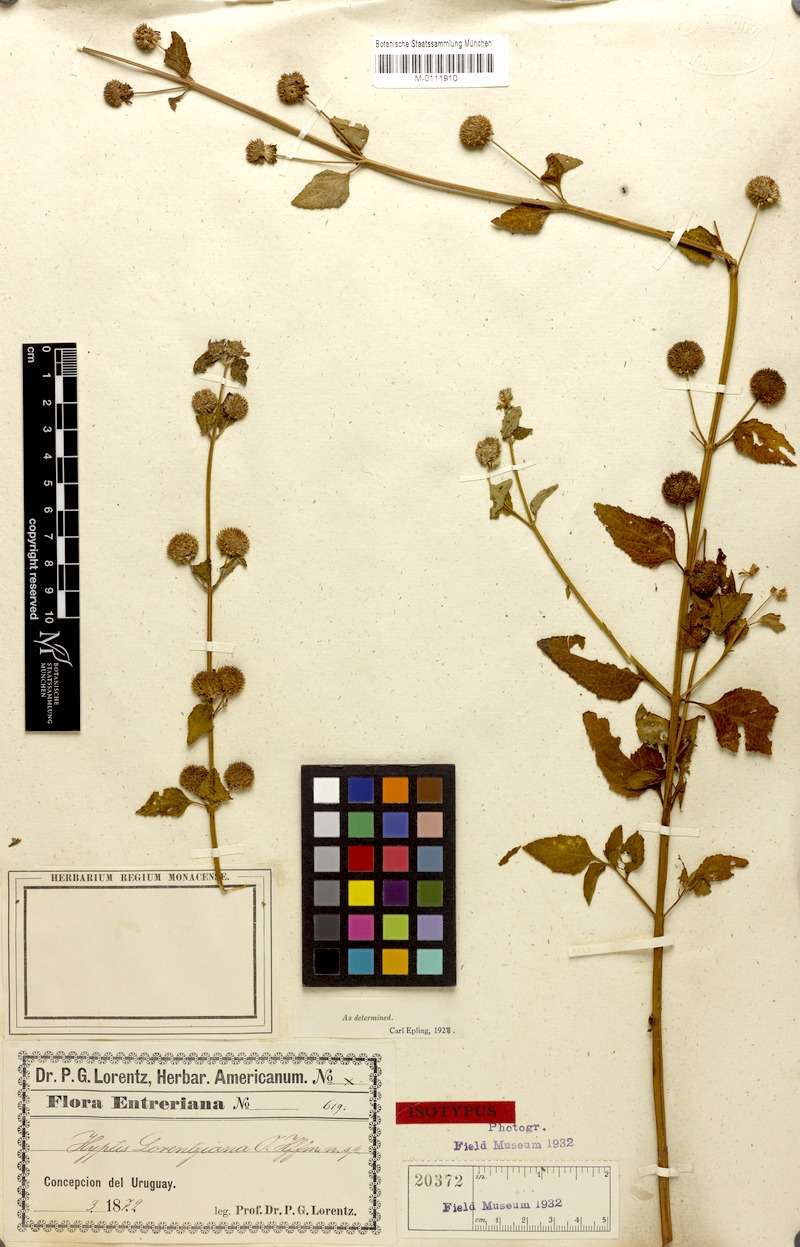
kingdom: Plantae
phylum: Tracheophyta
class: Magnoliopsida
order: Lamiales
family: Lamiaceae
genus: Hyptis
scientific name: Hyptis lorentziana
